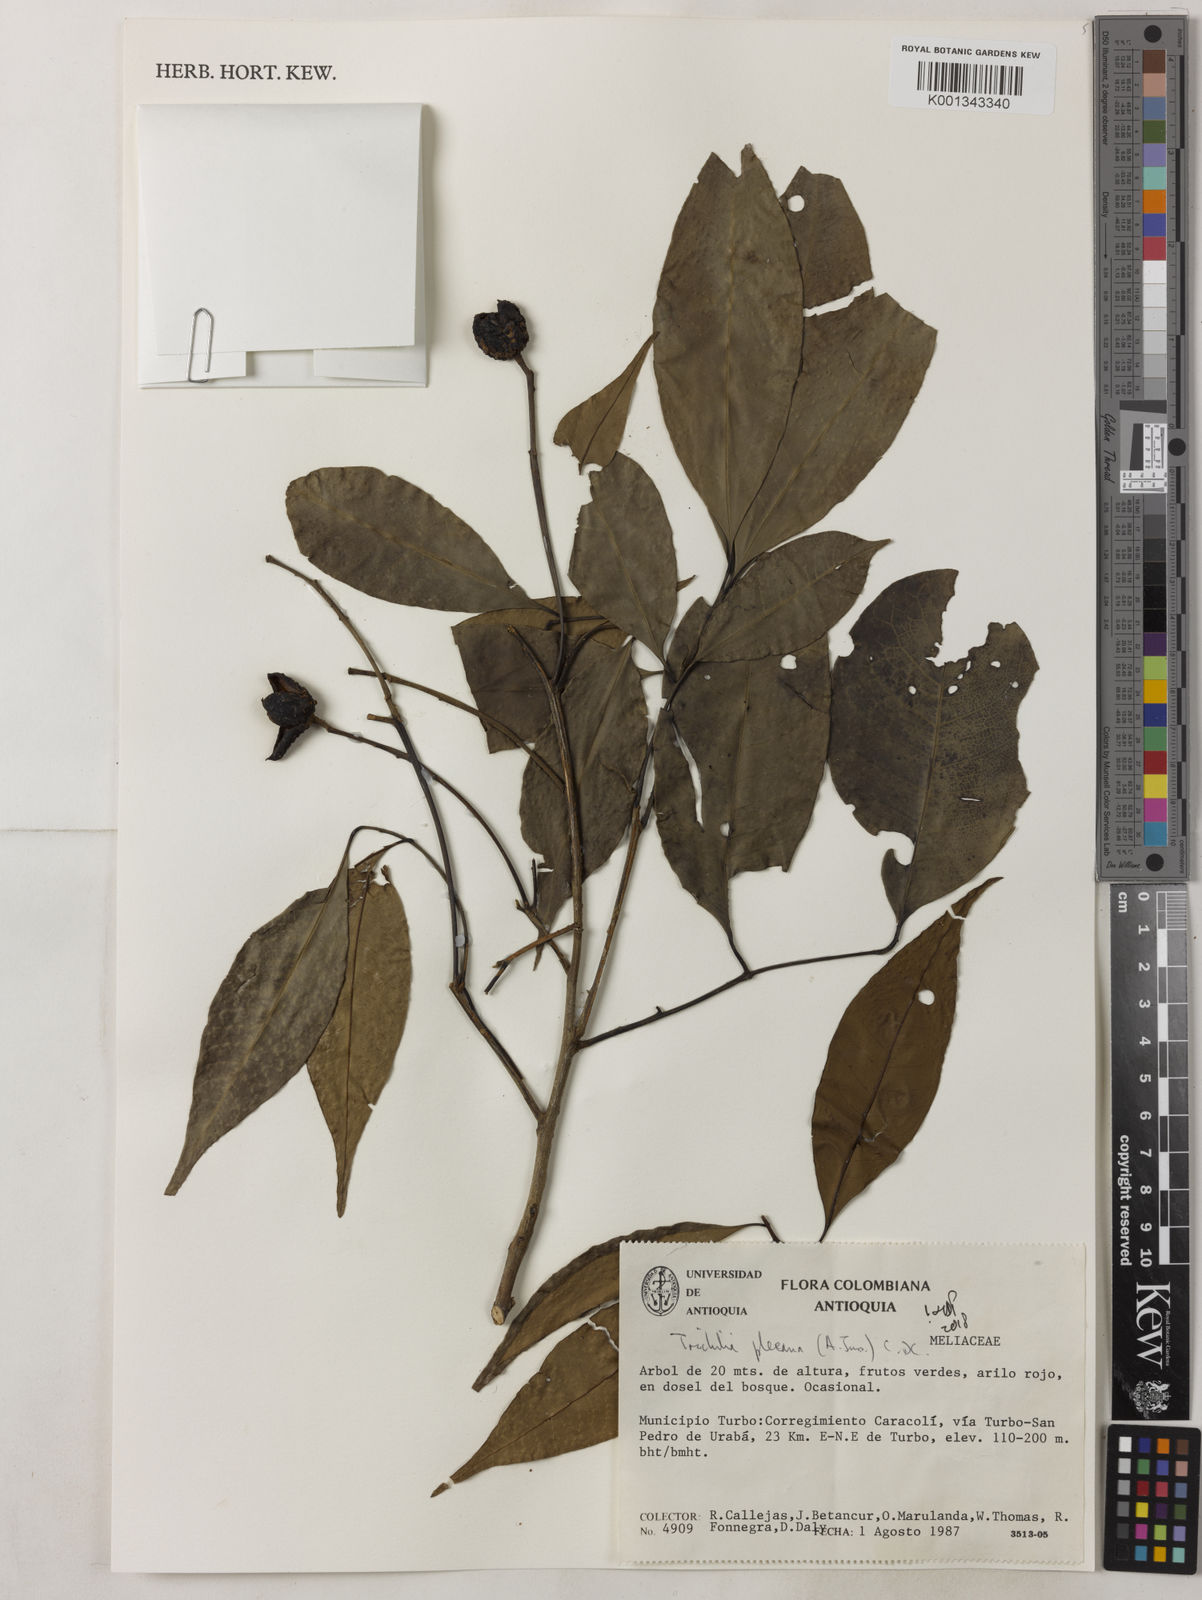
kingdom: Plantae
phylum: Tracheophyta
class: Magnoliopsida
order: Sapindales
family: Meliaceae
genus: Trichilia
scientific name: Trichilia pleeana
